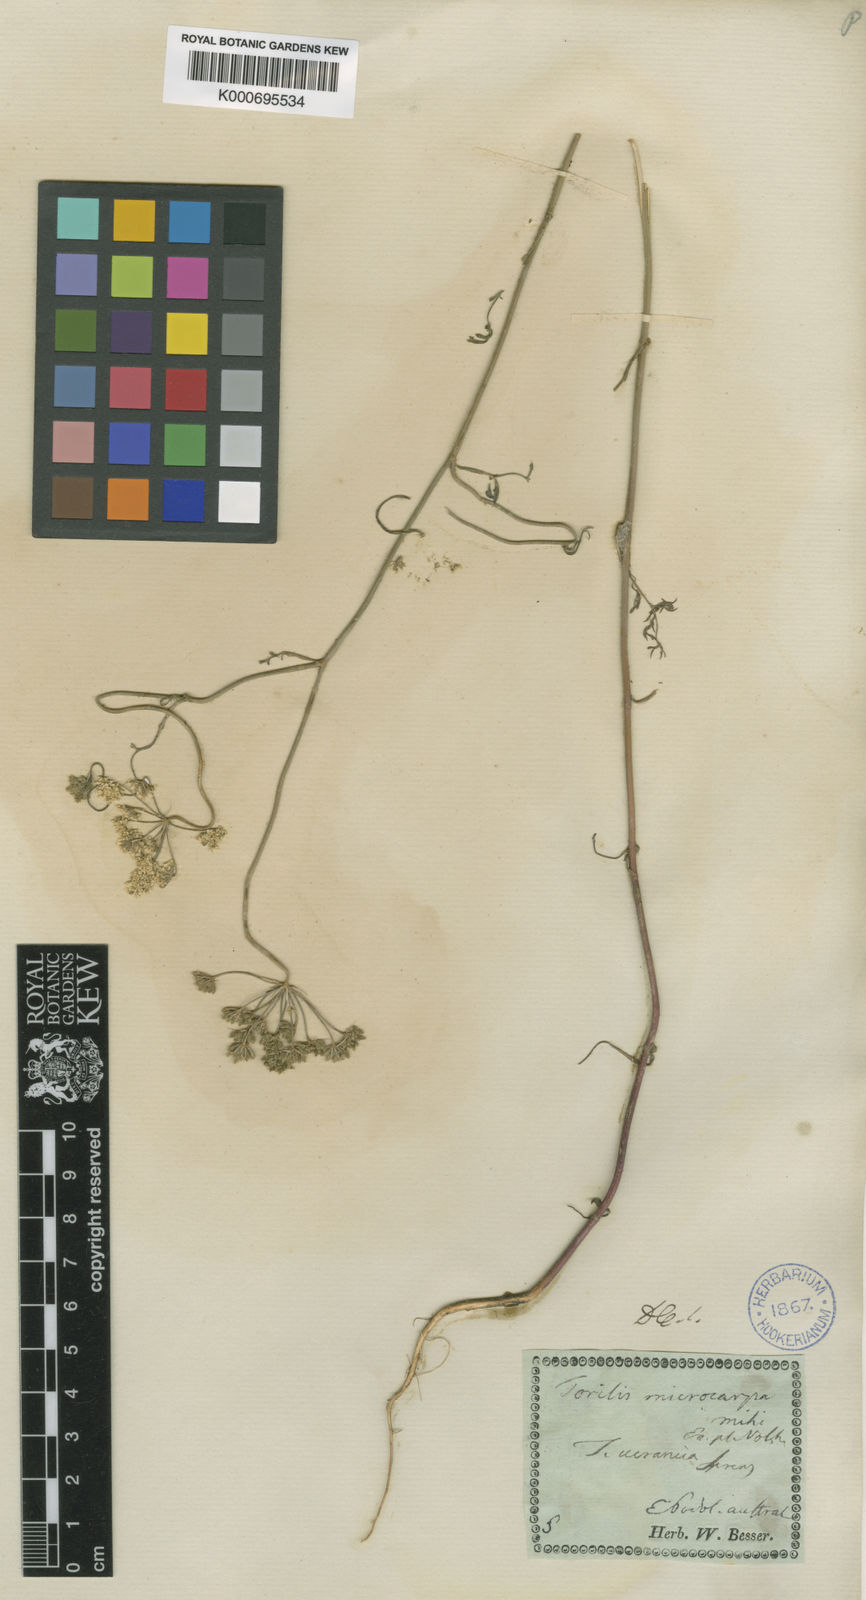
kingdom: Plantae
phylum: Tracheophyta
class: Magnoliopsida
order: Apiales
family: Apiaceae
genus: Torilis
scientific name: Torilis ucranica
